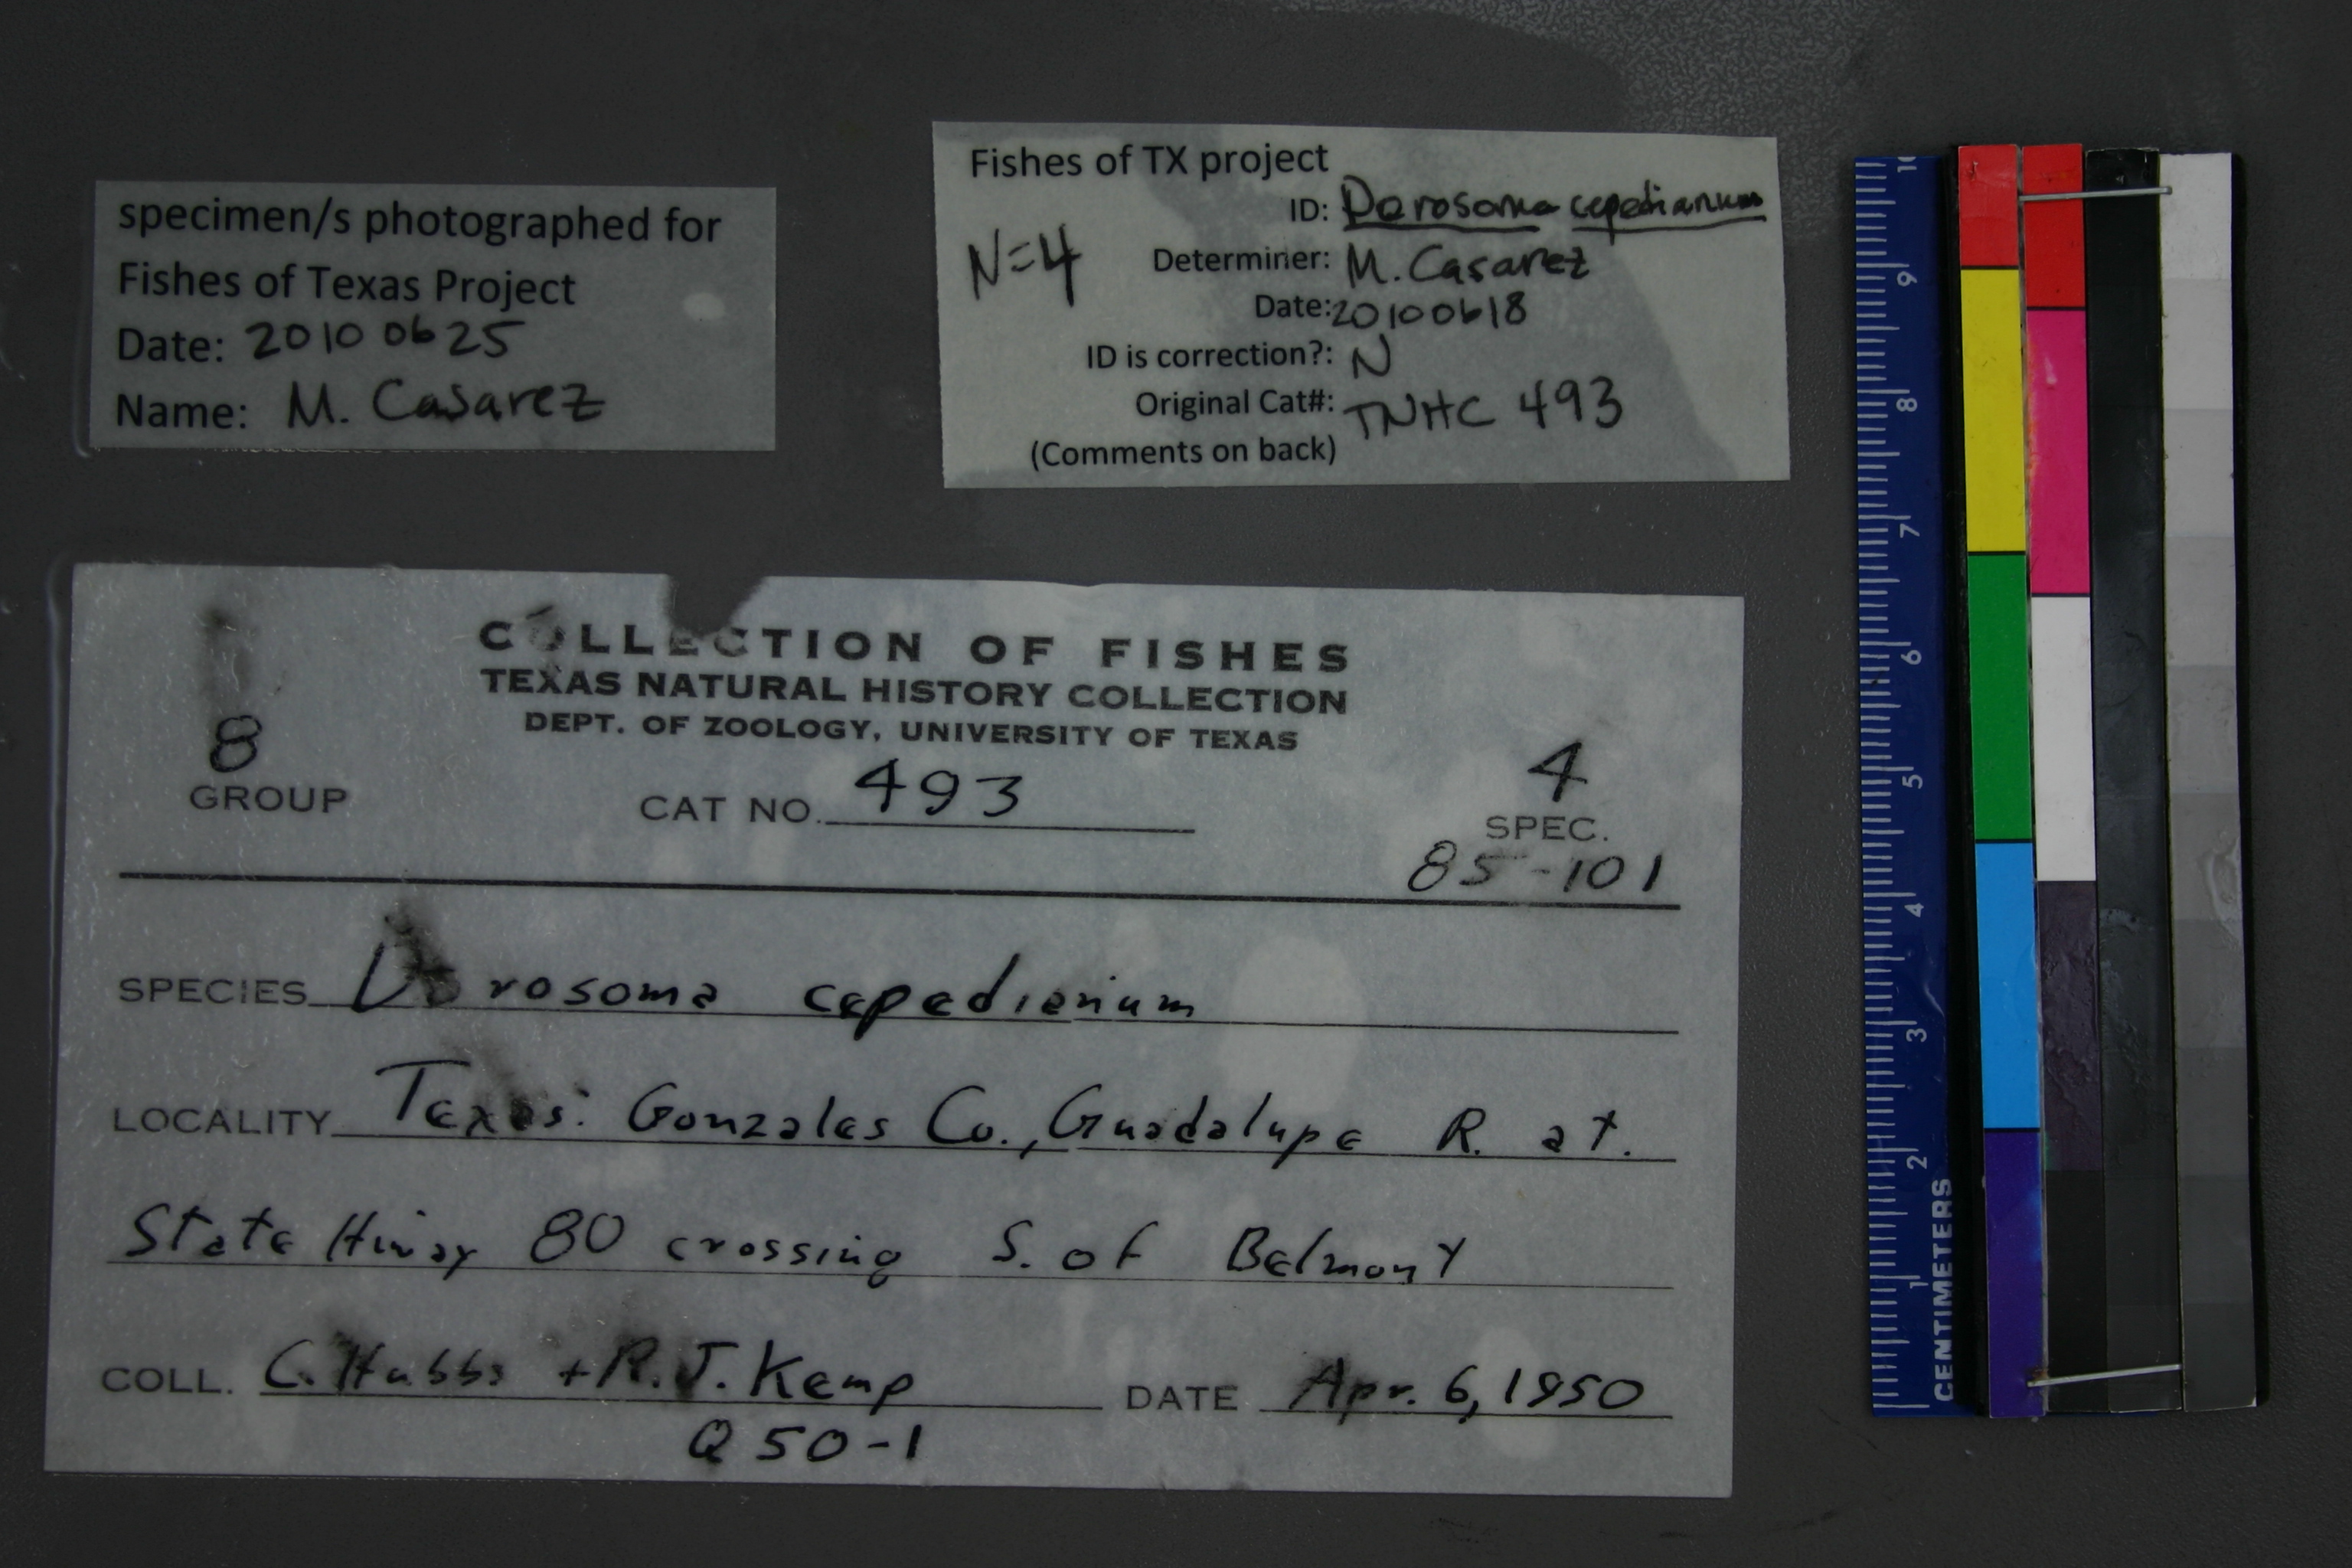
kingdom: Animalia
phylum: Chordata
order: Clupeiformes
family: Clupeidae
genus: Dorosoma
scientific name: Dorosoma cepedianum
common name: Gizzard shad
